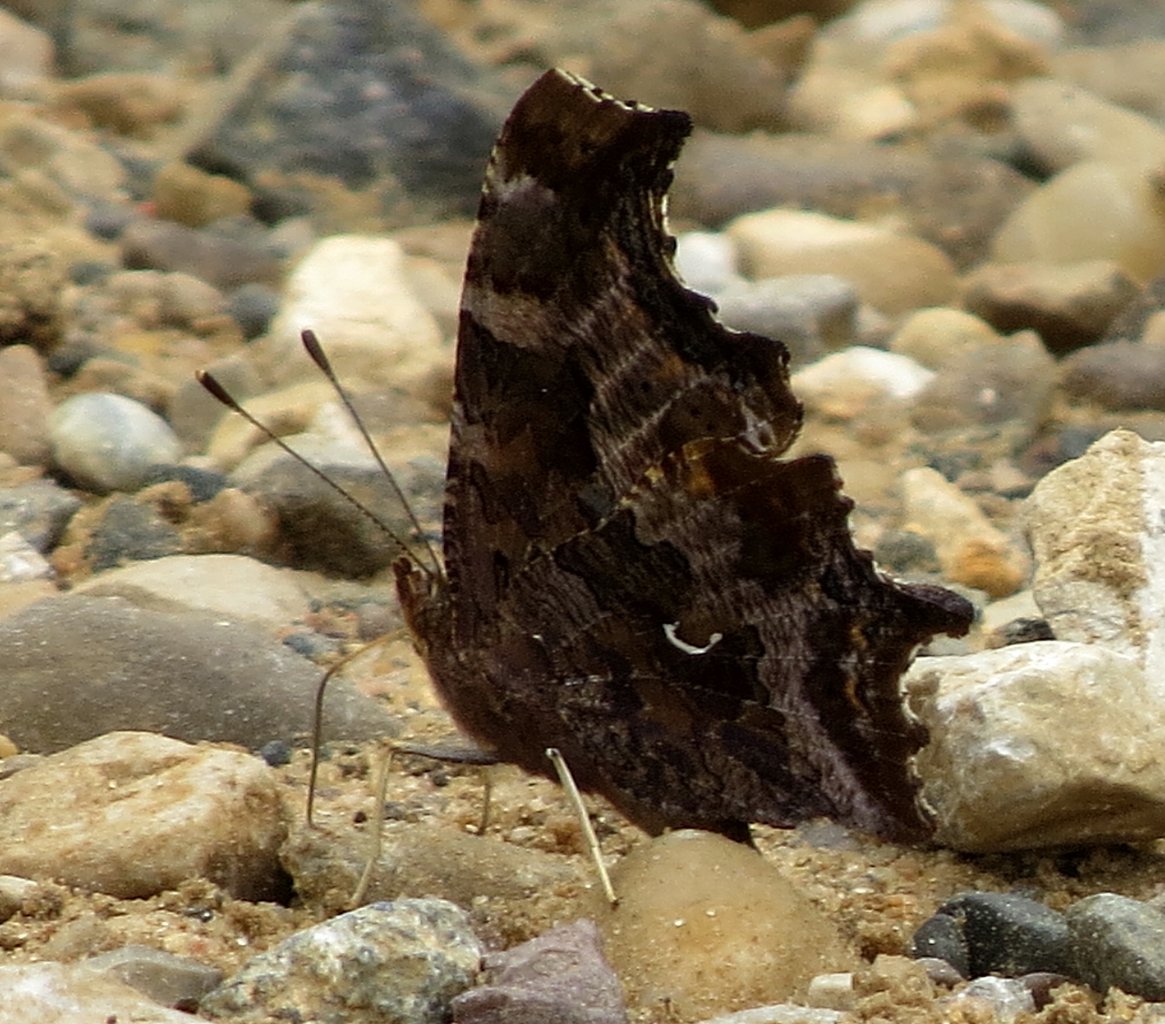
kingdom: Animalia
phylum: Arthropoda
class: Insecta
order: Lepidoptera
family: Nymphalidae
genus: Polygonia
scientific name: Polygonia comma
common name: Eastern Comma
